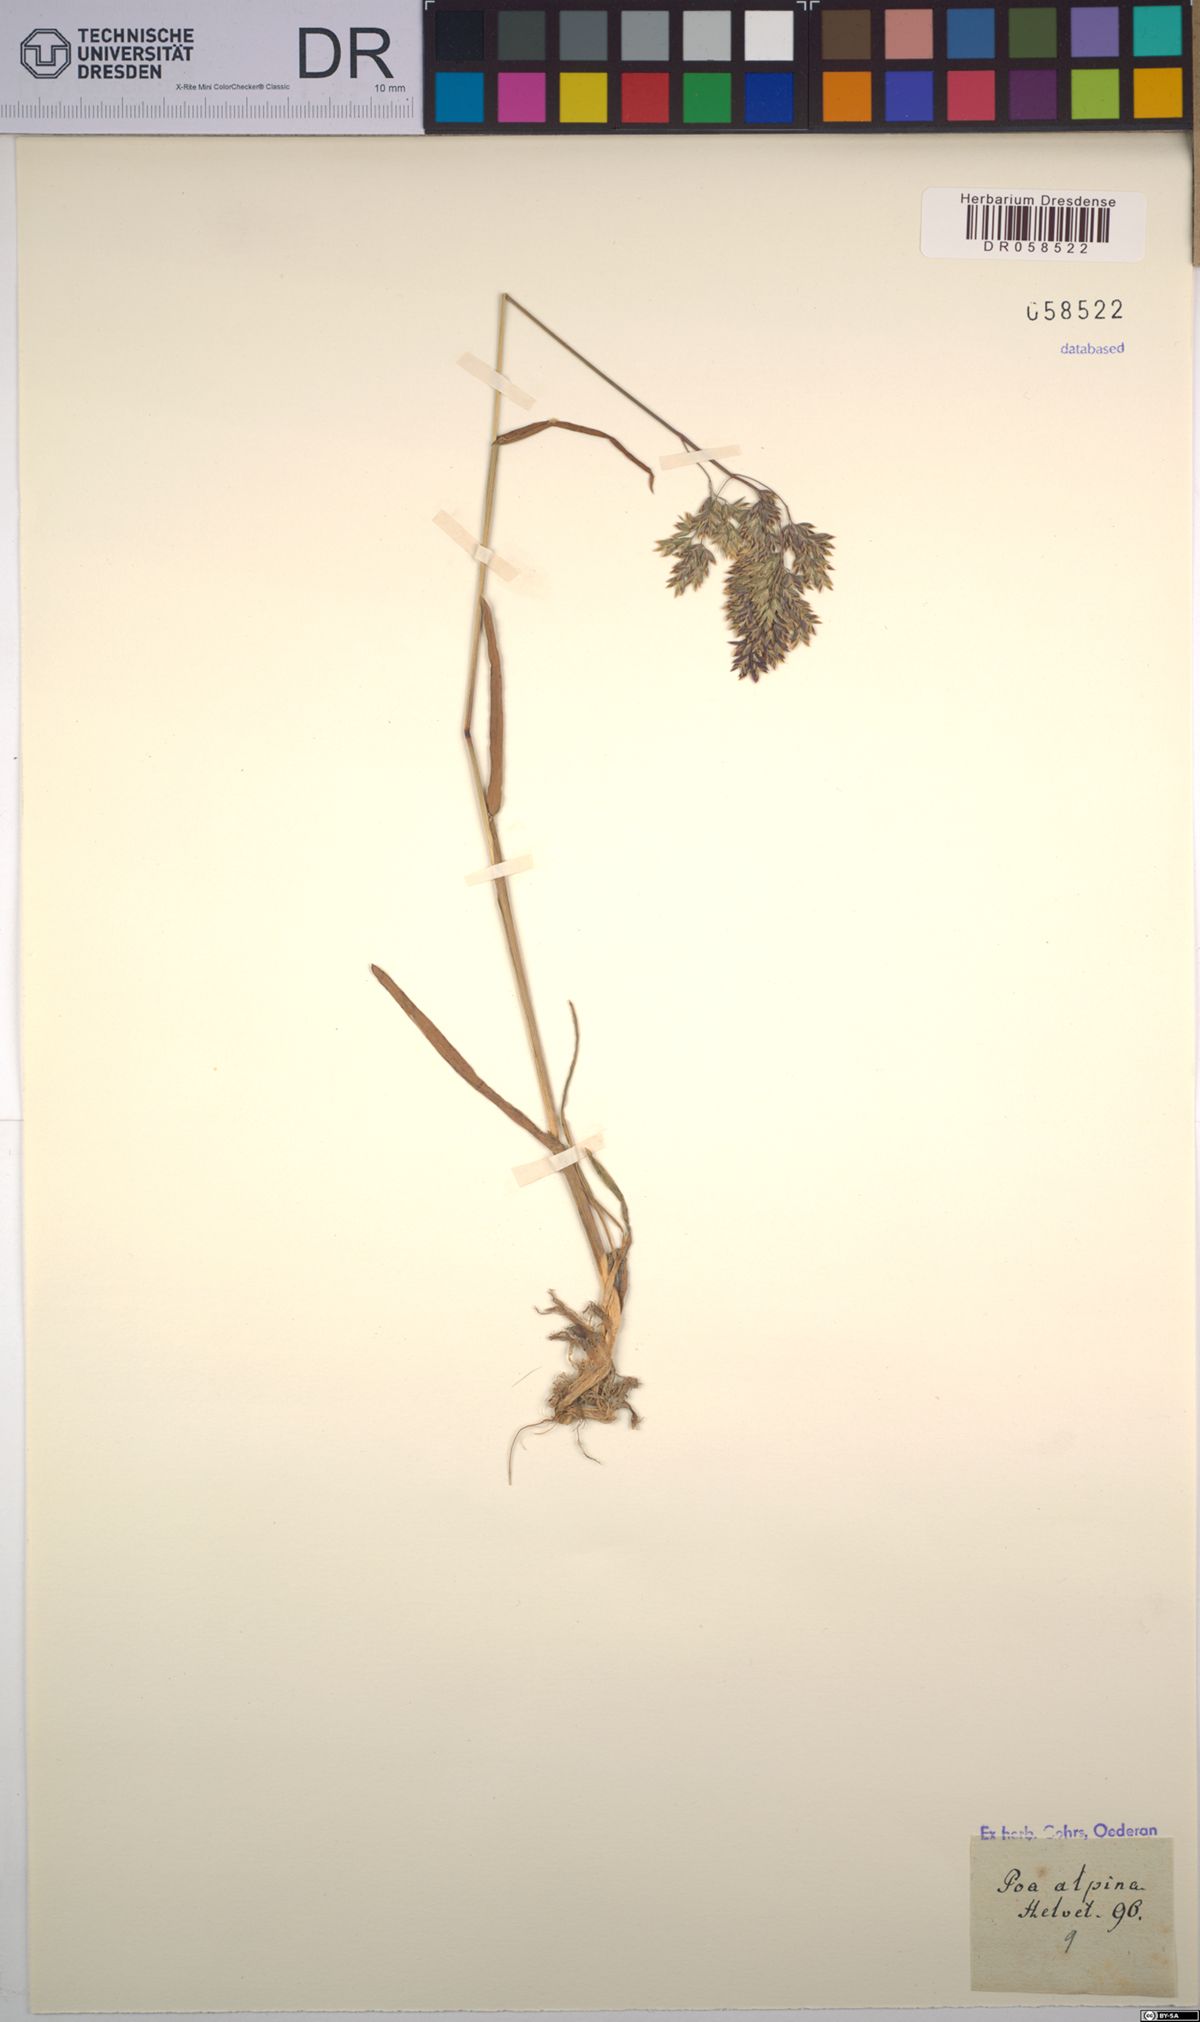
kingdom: Plantae
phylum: Tracheophyta
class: Liliopsida
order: Poales
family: Poaceae
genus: Poa
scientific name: Poa alpina
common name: Alpine bluegrass
